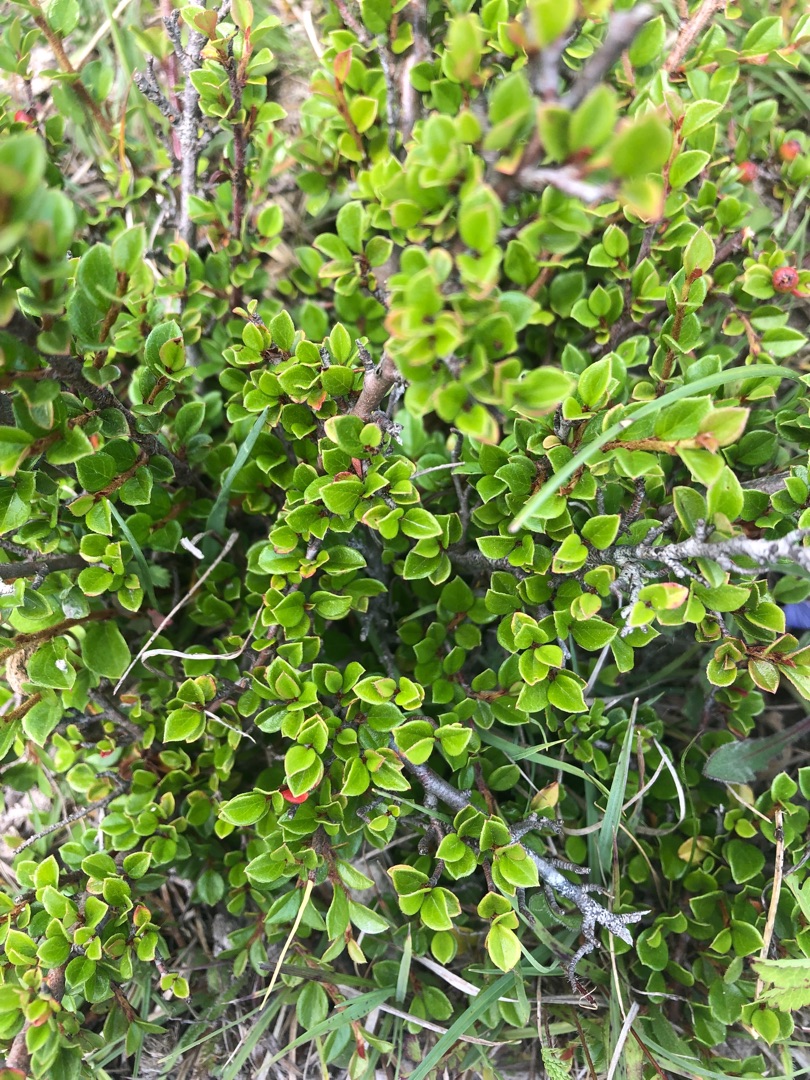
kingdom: Plantae
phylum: Tracheophyta
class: Magnoliopsida
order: Rosales
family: Rosaceae
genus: Cotoneaster
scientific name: Cotoneaster horizontalis
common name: Lodret og vandret
